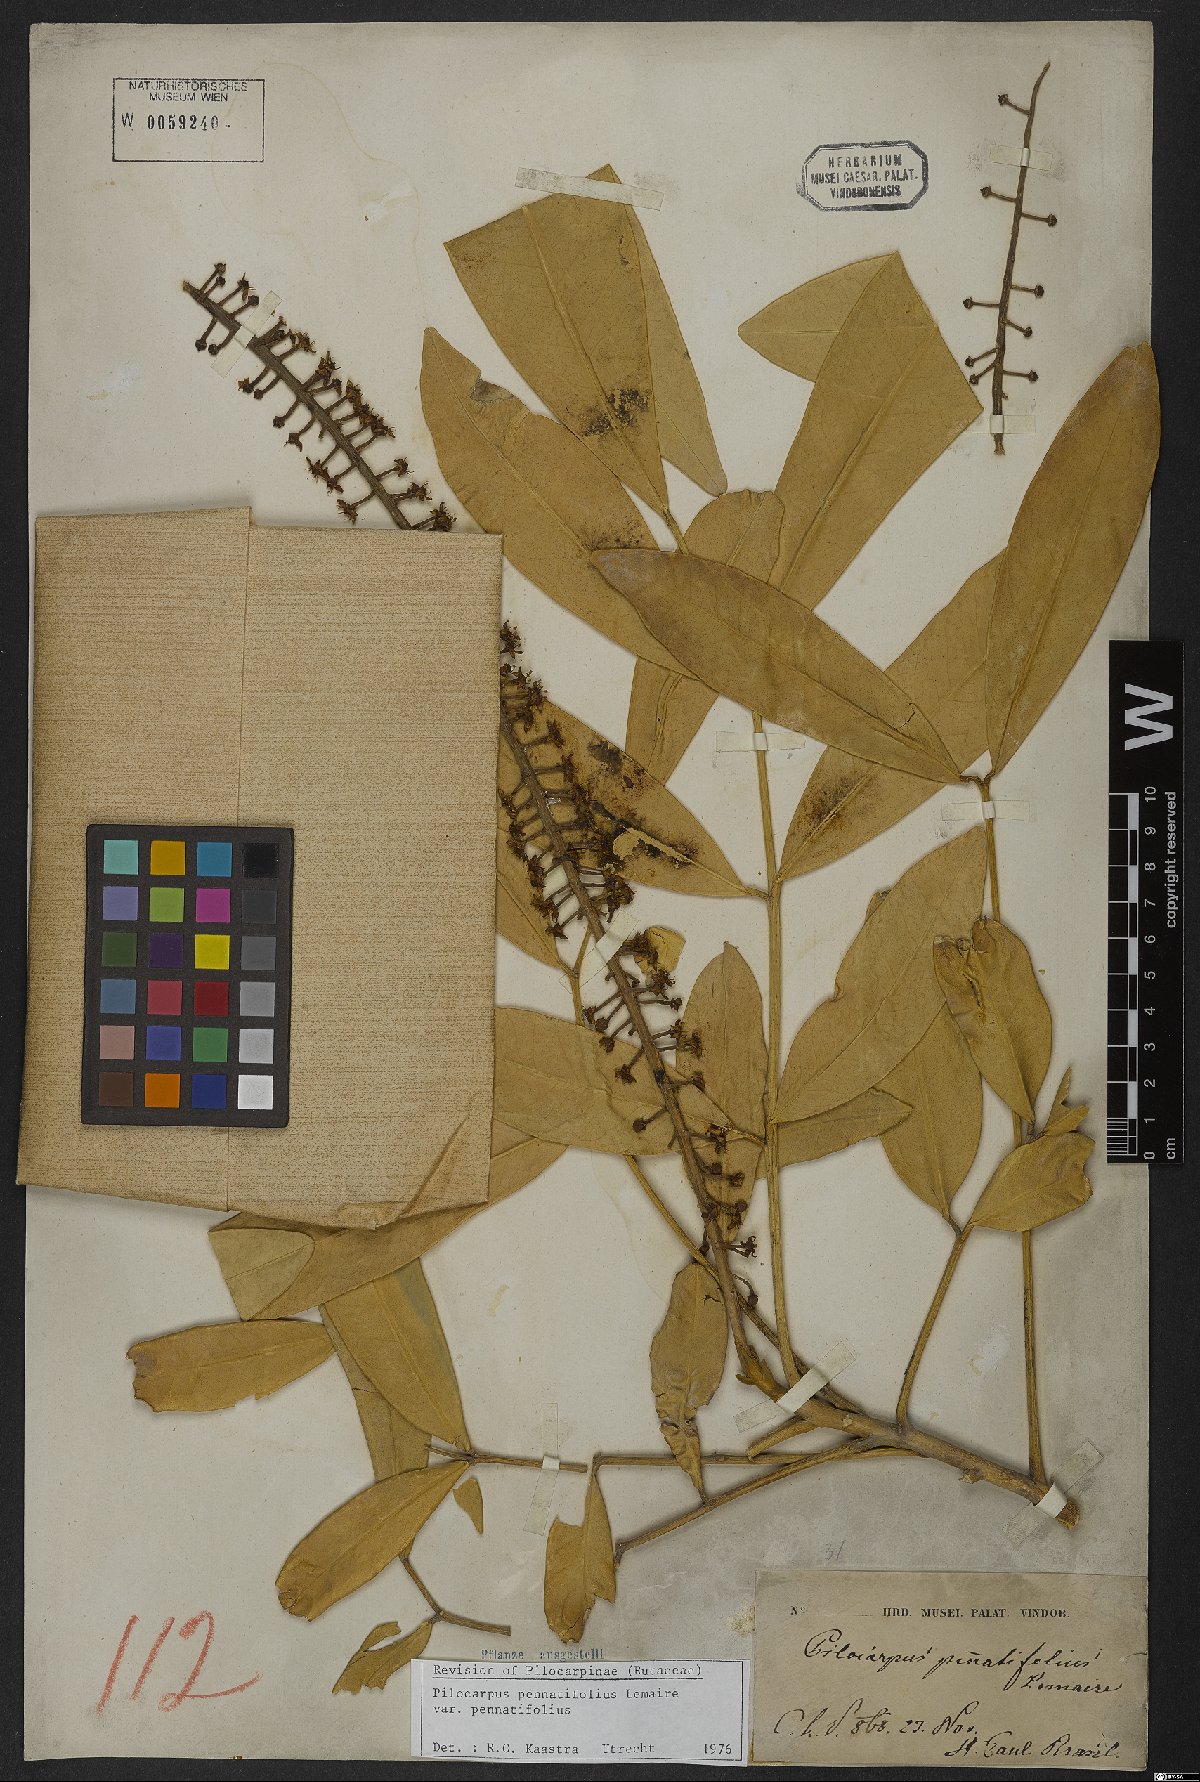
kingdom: Plantae
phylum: Tracheophyta
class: Magnoliopsida
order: Sapindales
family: Rutaceae
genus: Pilocarpus
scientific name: Pilocarpus pennatifolius
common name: Paraguay jaborandi
